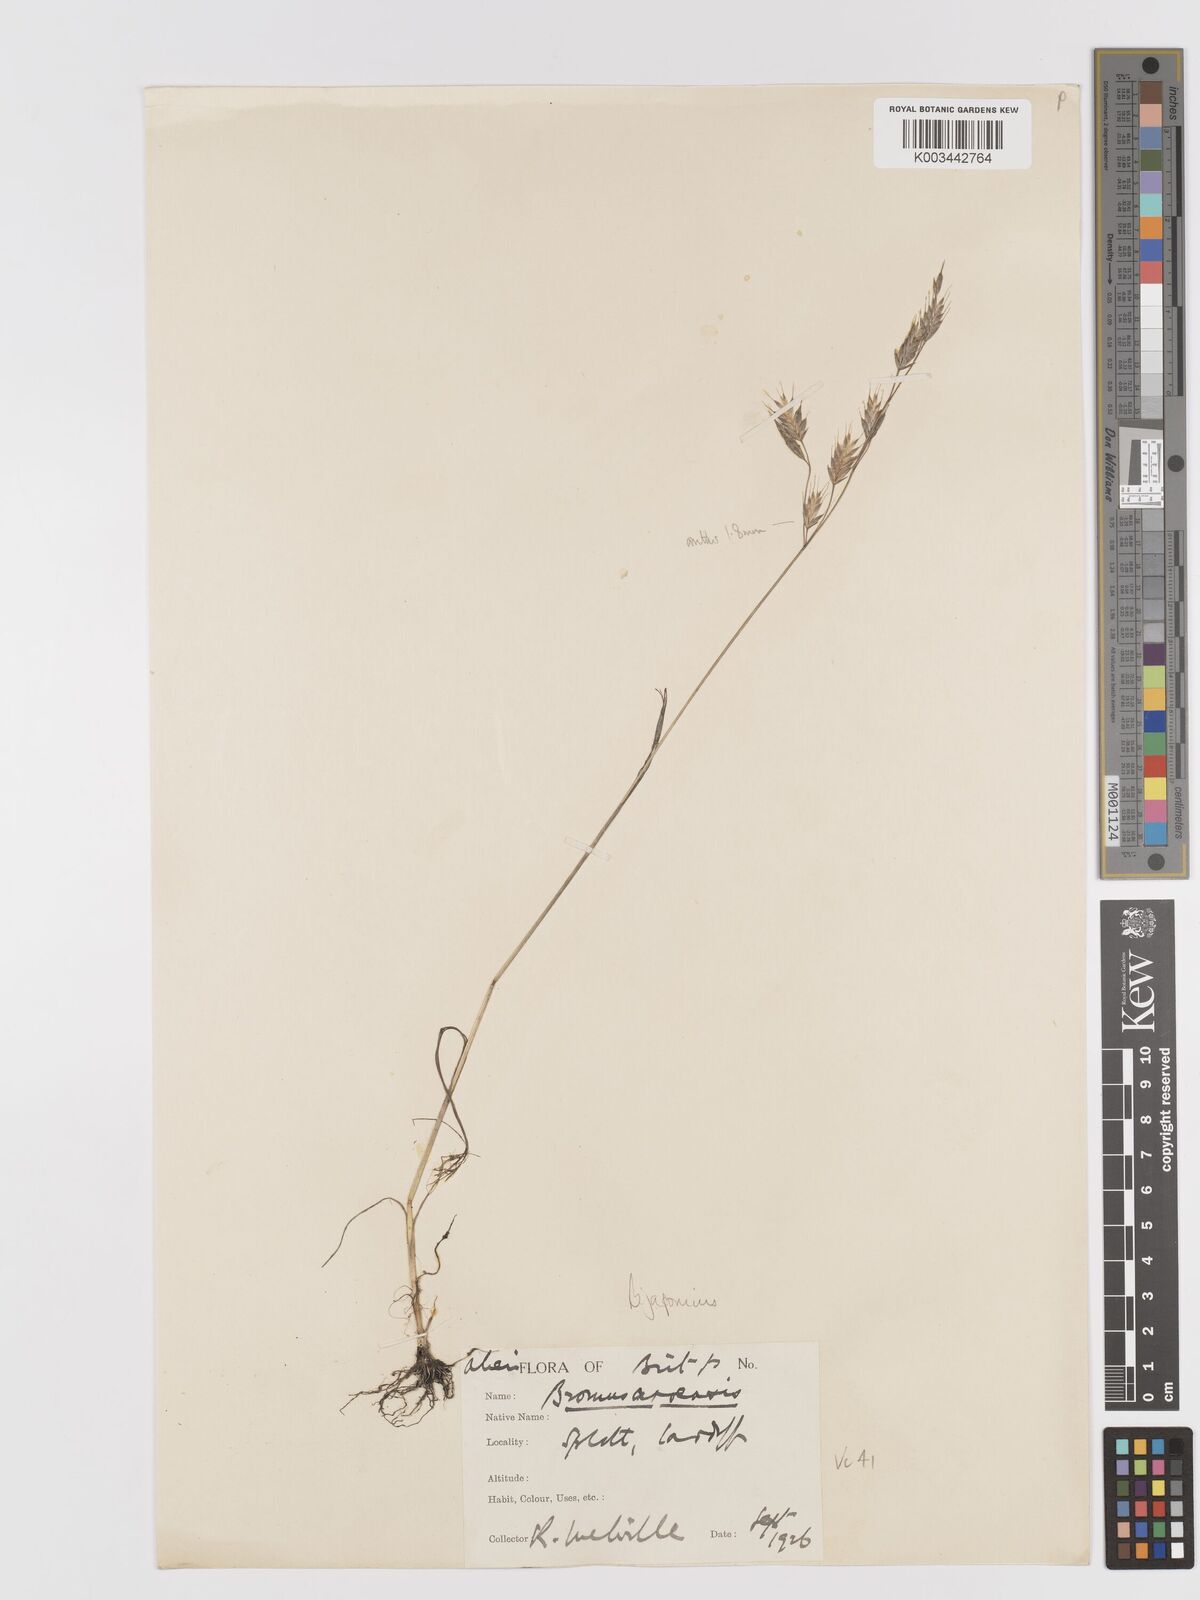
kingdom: Plantae
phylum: Tracheophyta
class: Liliopsida
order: Poales
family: Poaceae
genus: Bromus
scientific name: Bromus japonicus
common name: Japanese brome
